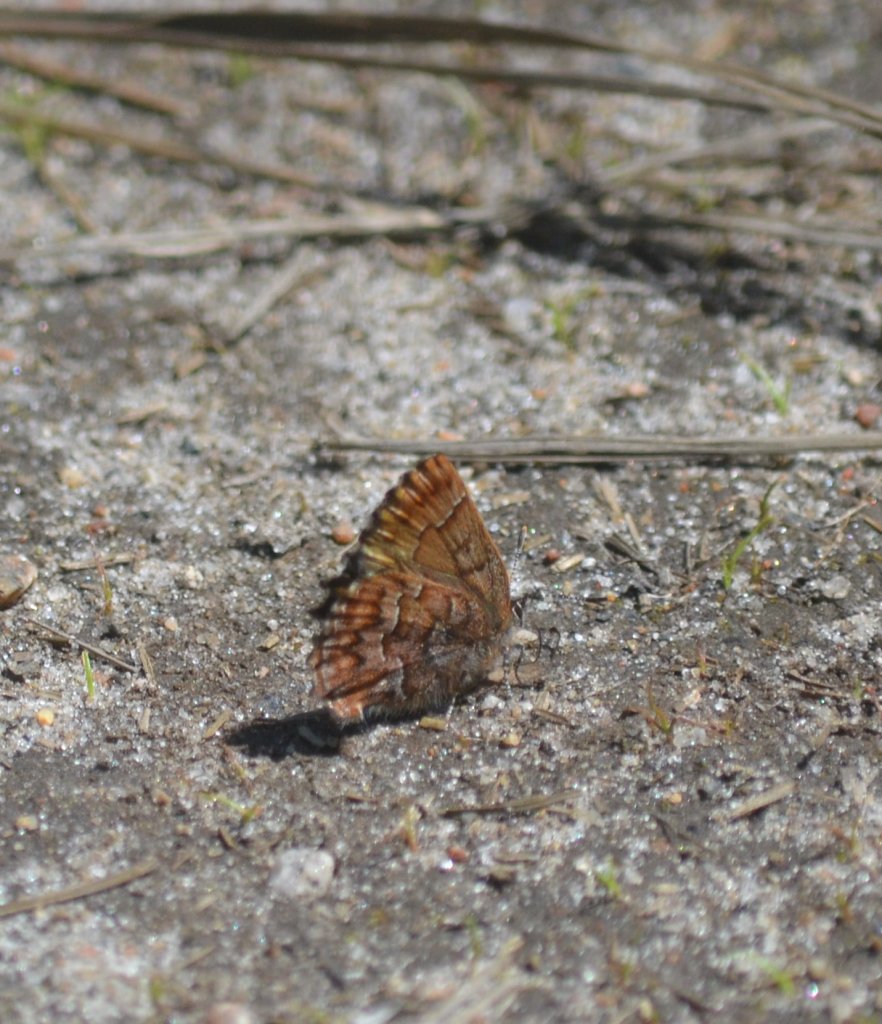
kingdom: Animalia
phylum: Arthropoda
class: Insecta
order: Lepidoptera
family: Lycaenidae
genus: Incisalia
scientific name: Incisalia niphon
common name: Eastern Pine Elfin
